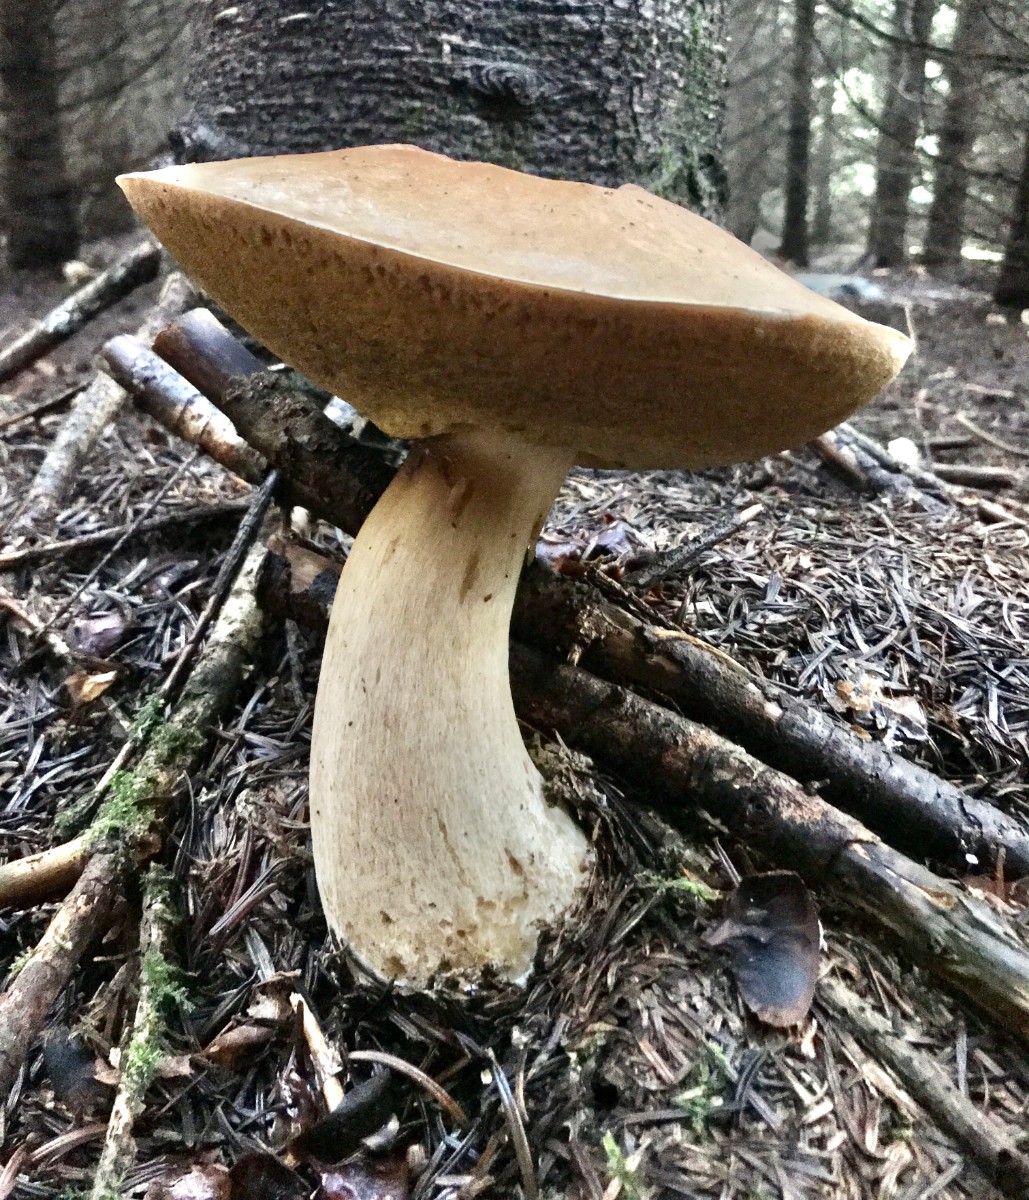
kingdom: Fungi
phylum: Basidiomycota
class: Agaricomycetes
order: Boletales
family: Boletaceae
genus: Boletus
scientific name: Boletus edulis
